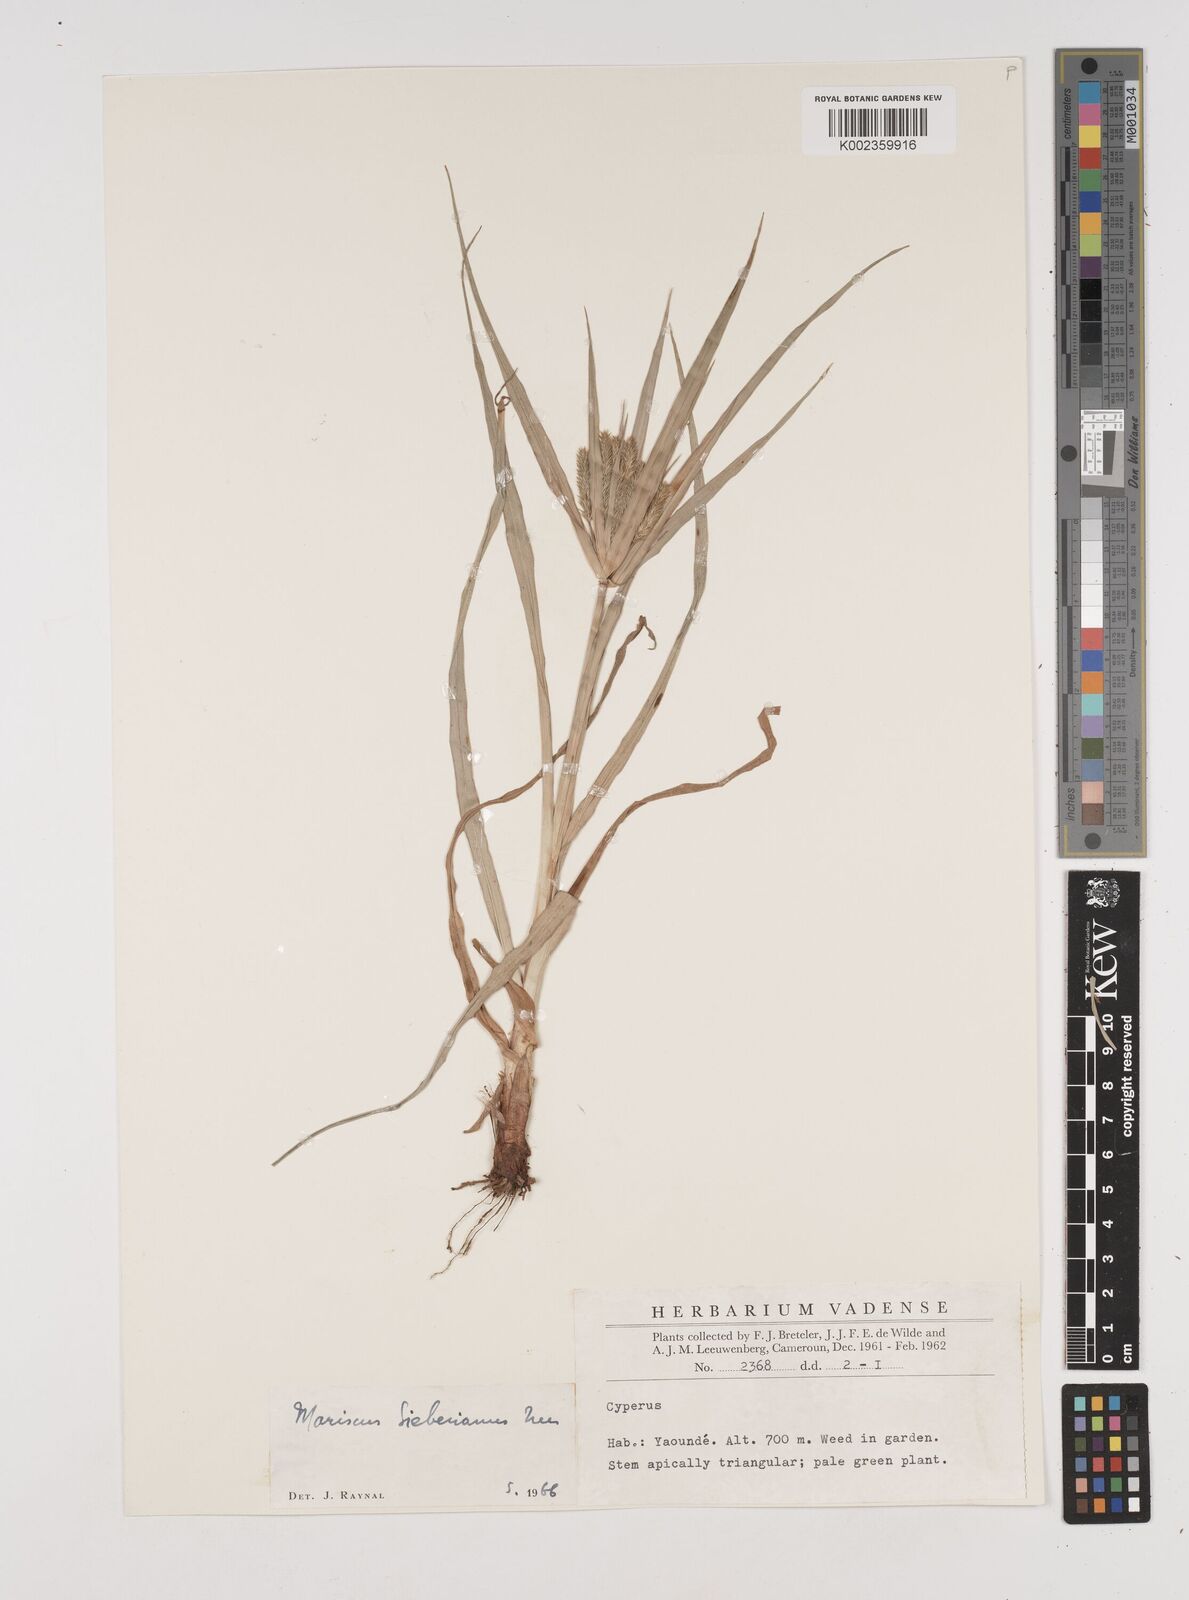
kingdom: Plantae
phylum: Tracheophyta
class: Liliopsida
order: Poales
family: Cyperaceae
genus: Cyperus
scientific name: Cyperus cyperoides
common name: Pacific island flat sedge
